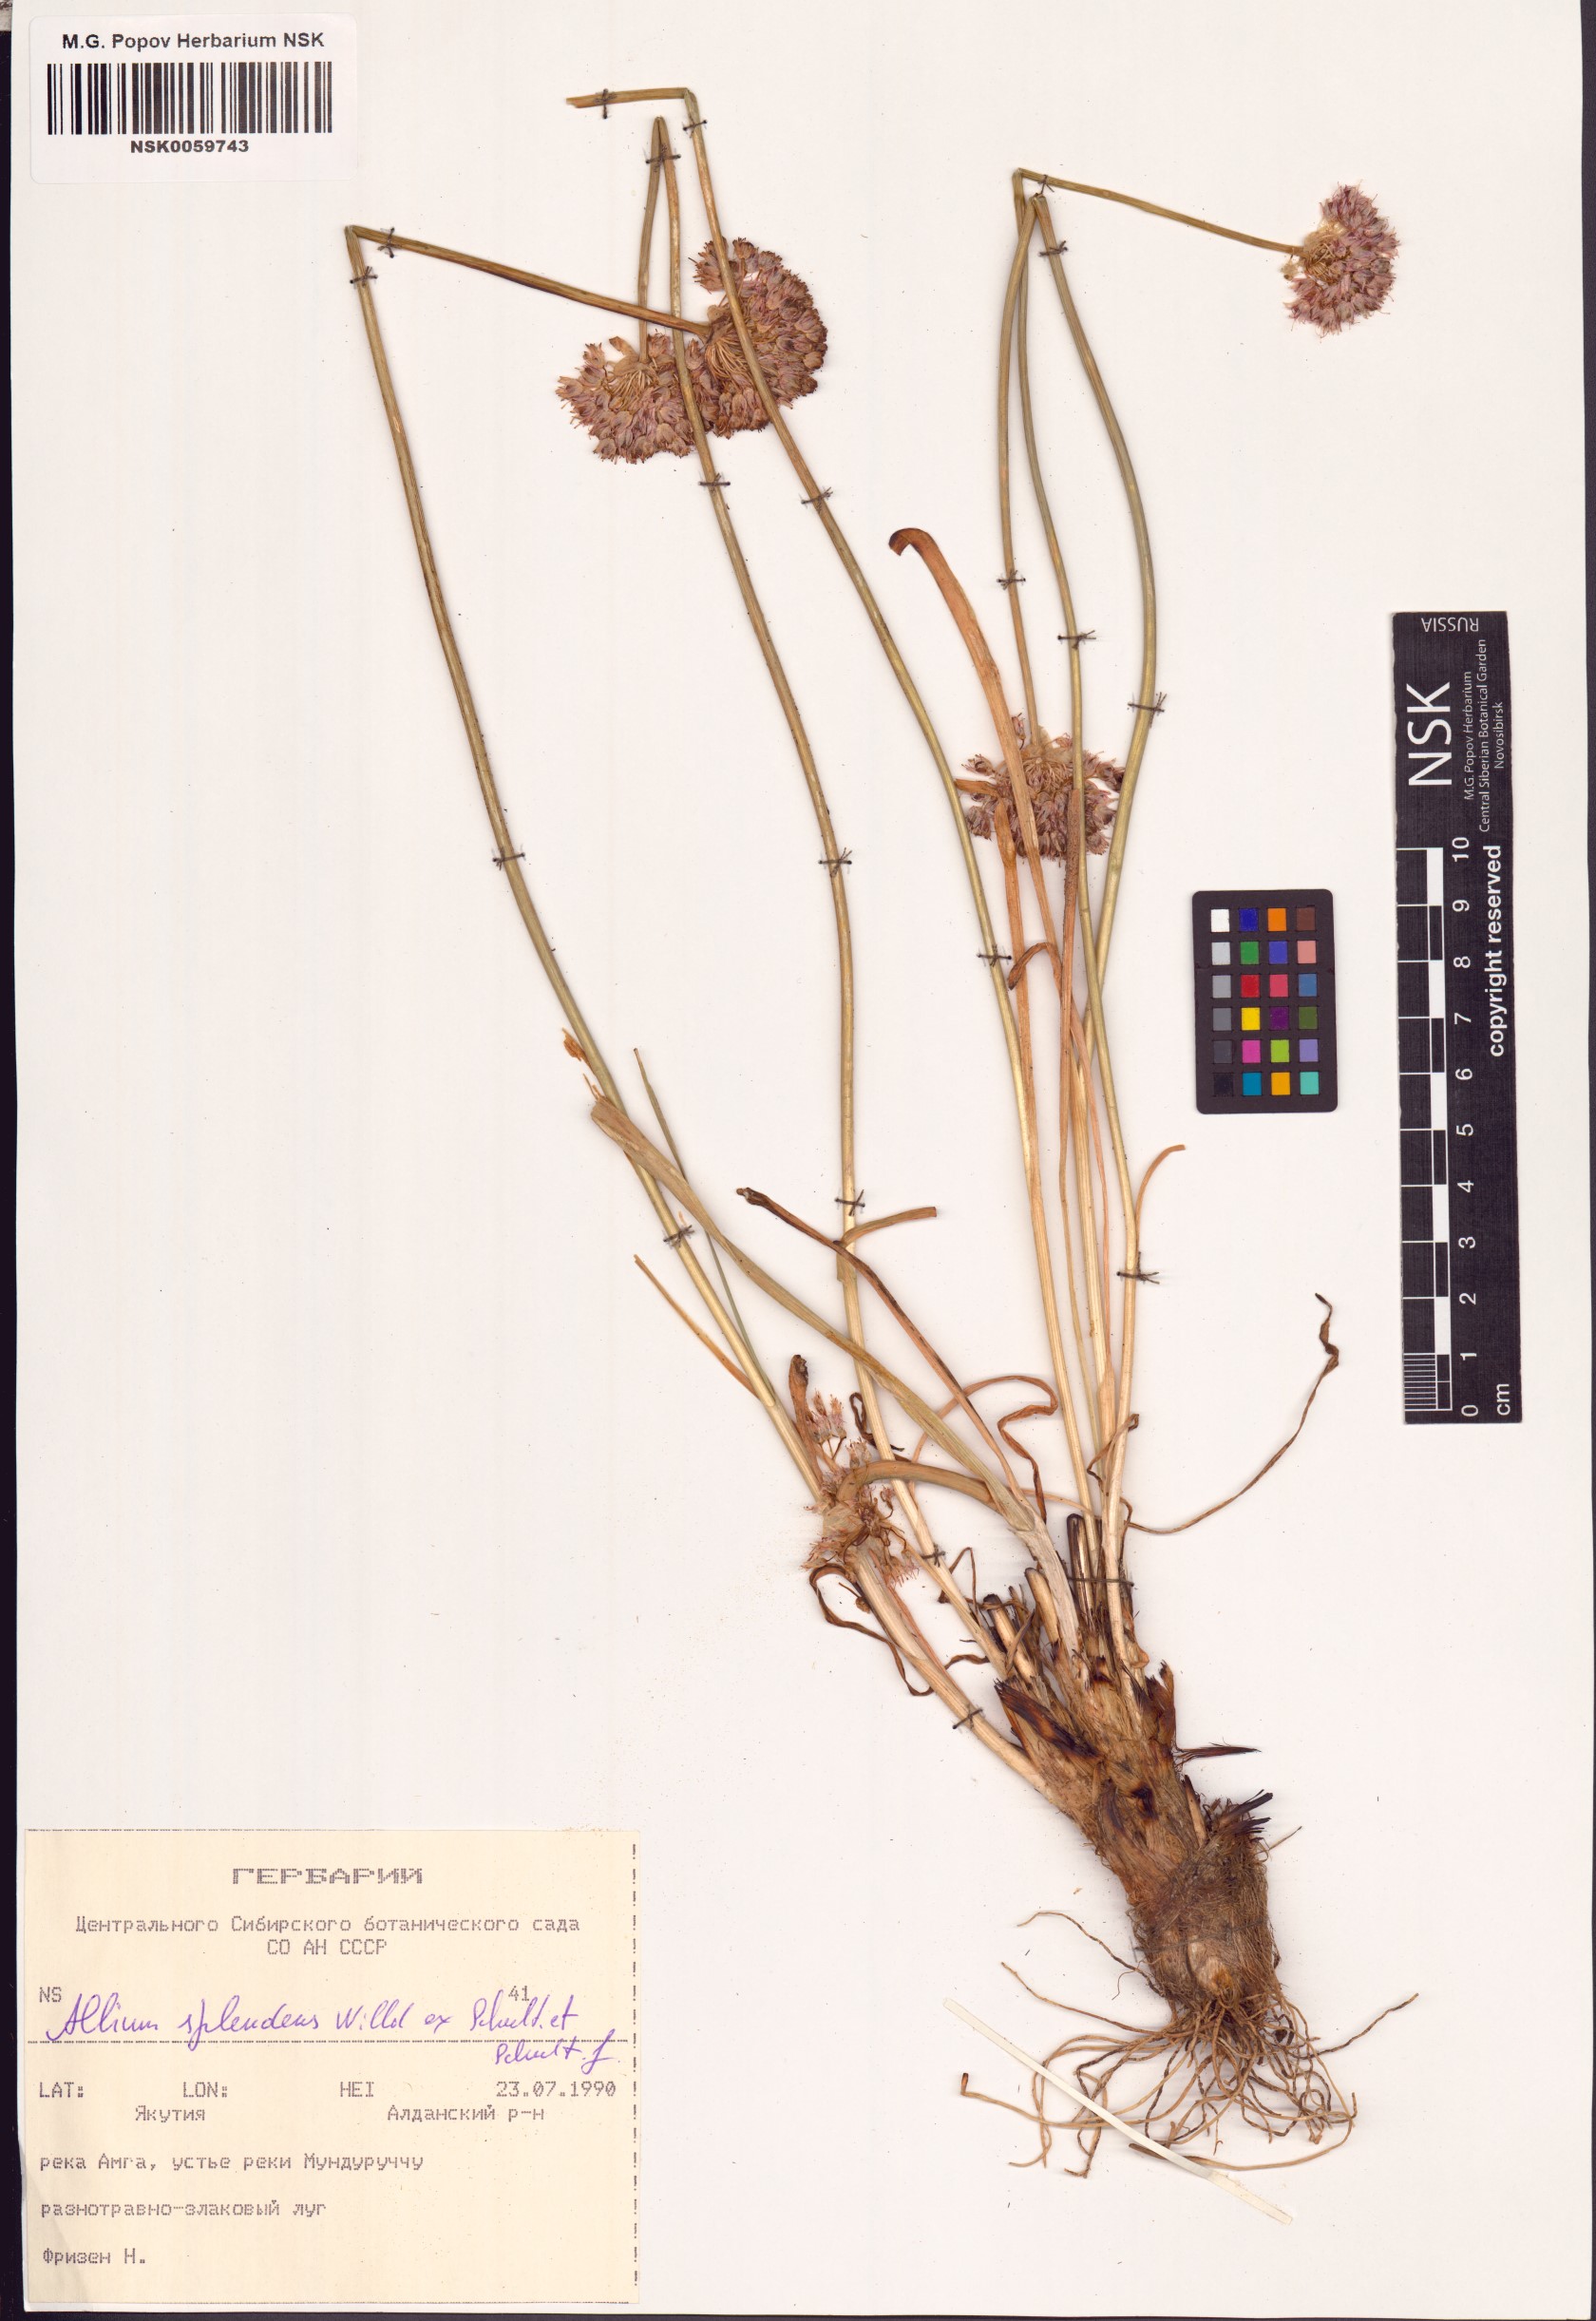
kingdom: Plantae
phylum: Tracheophyta
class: Liliopsida
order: Asparagales
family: Amaryllidaceae
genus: Allium
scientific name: Allium splendens
